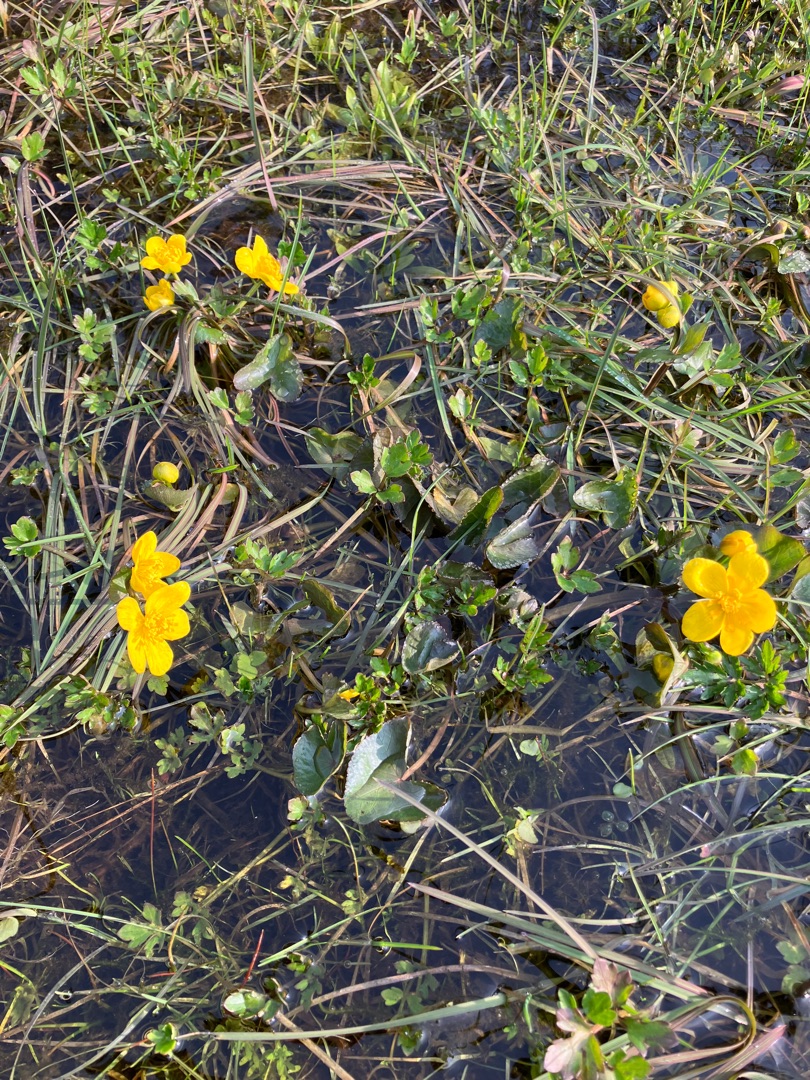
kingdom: Plantae
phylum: Tracheophyta
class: Magnoliopsida
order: Ranunculales
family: Ranunculaceae
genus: Caltha
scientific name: Caltha palustris
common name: Eng-kabbeleje
